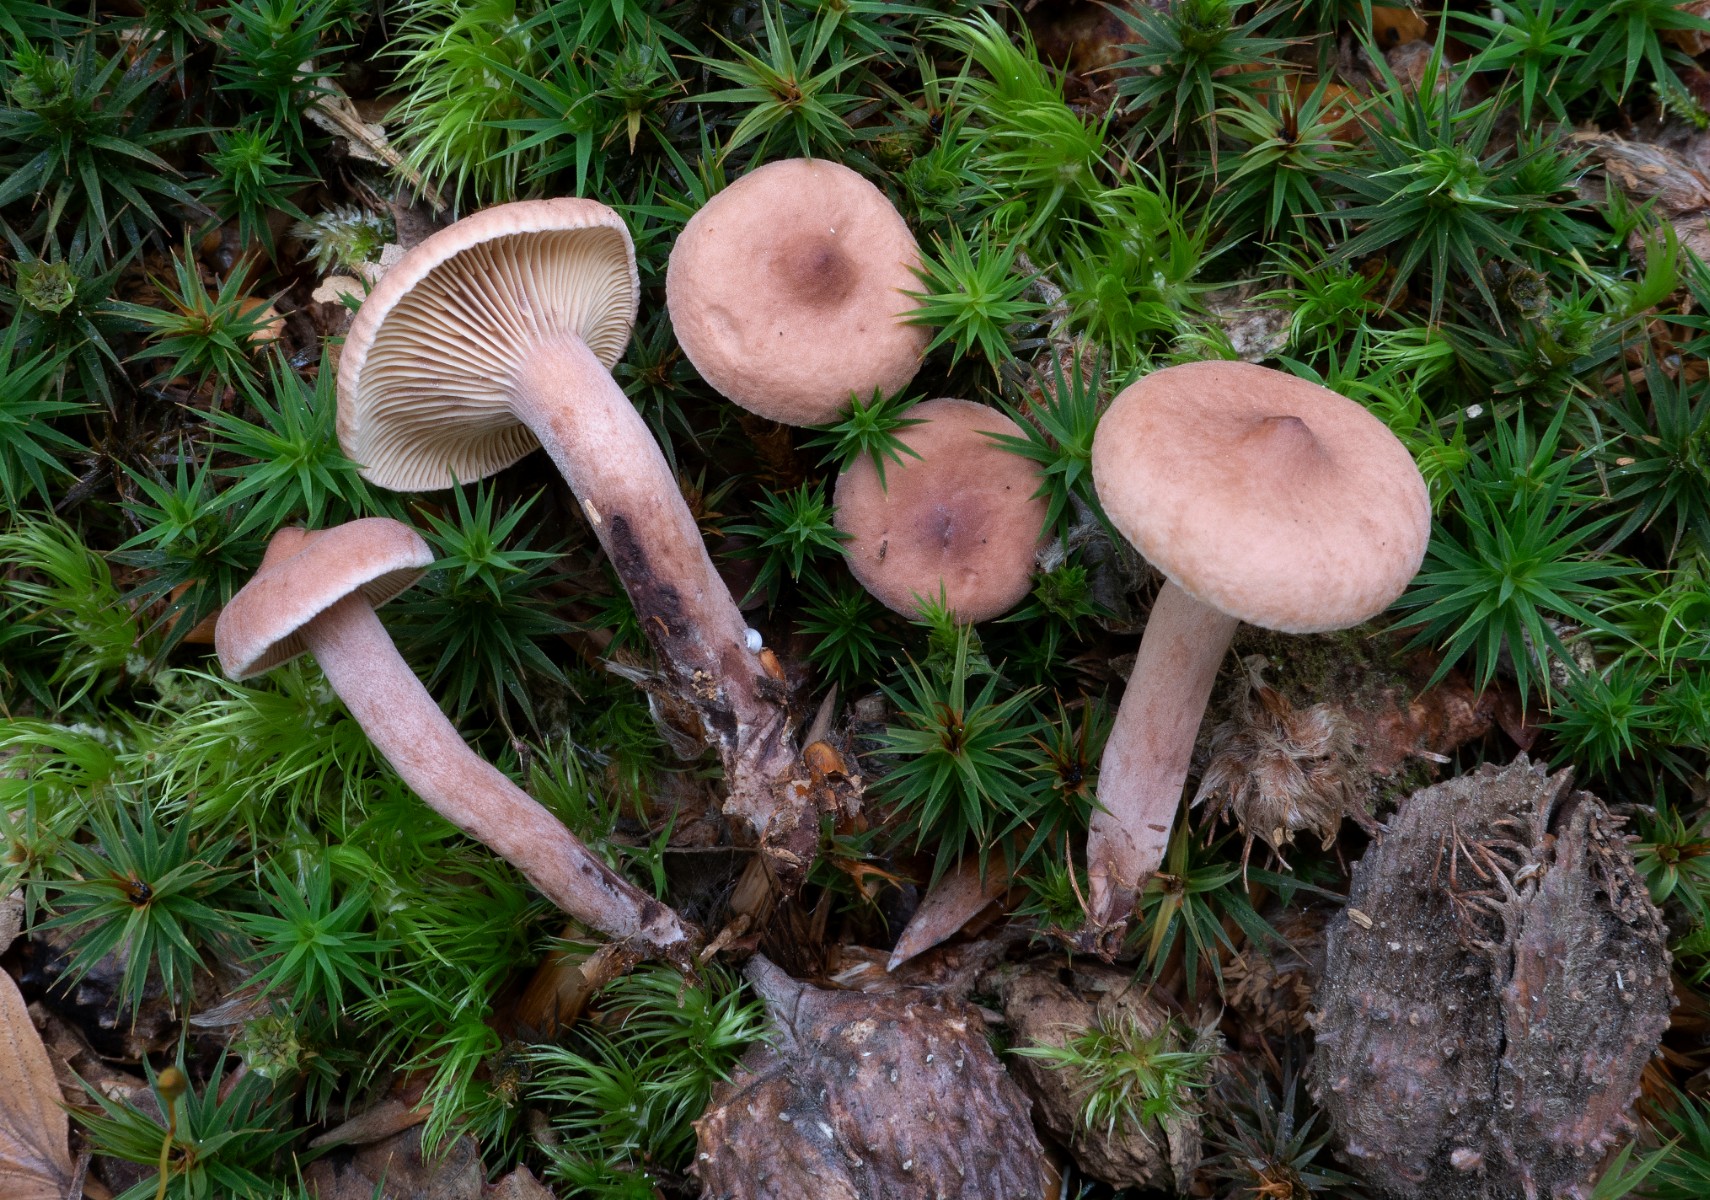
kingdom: Fungi
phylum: Basidiomycota
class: Agaricomycetes
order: Russulales
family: Russulaceae
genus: Lactarius
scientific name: Lactarius camphoratus
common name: kamfer-mælkehat
